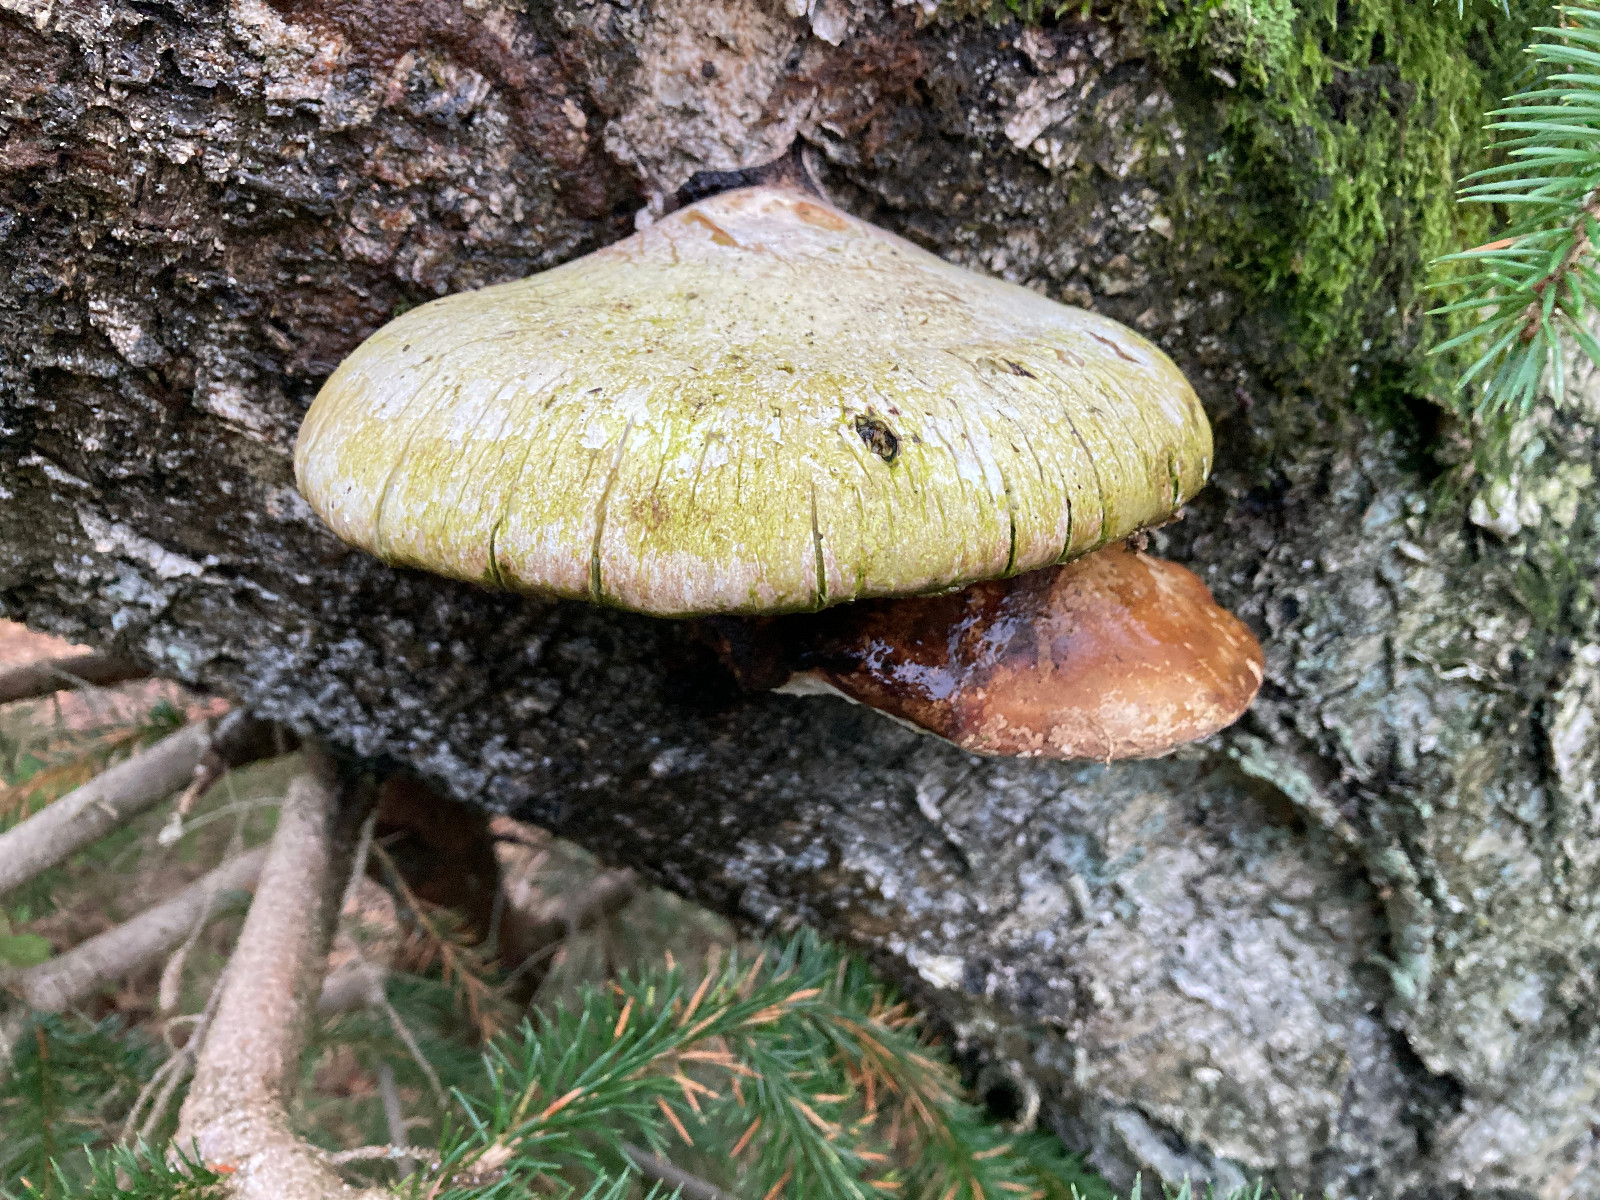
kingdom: Fungi
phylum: Basidiomycota
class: Agaricomycetes
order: Polyporales
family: Fomitopsidaceae
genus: Fomitopsis
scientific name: Fomitopsis betulina
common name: birkeporesvamp
